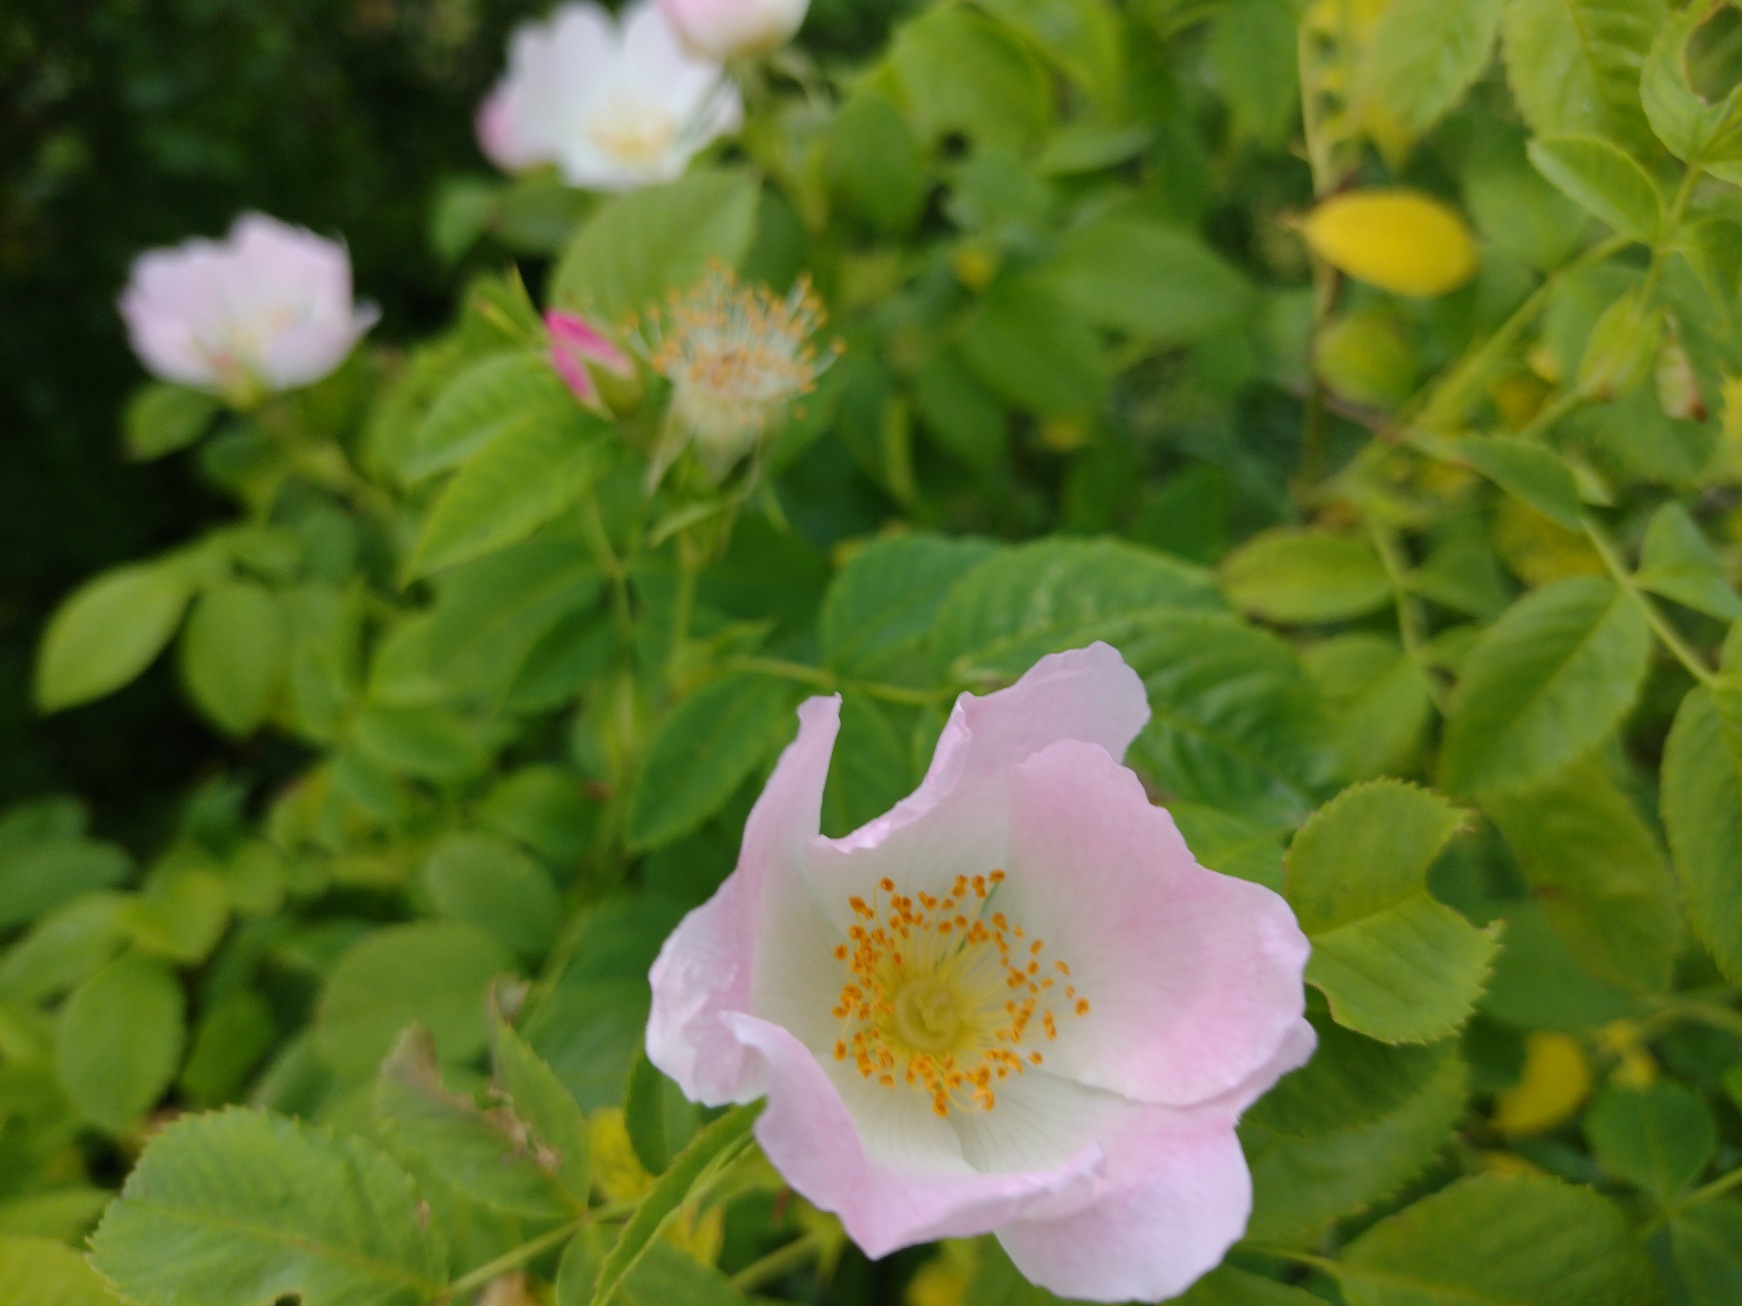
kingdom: Plantae
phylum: Tracheophyta
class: Magnoliopsida
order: Rosales
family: Rosaceae
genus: Rosa
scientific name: Rosa canina
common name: Hunde-rose
